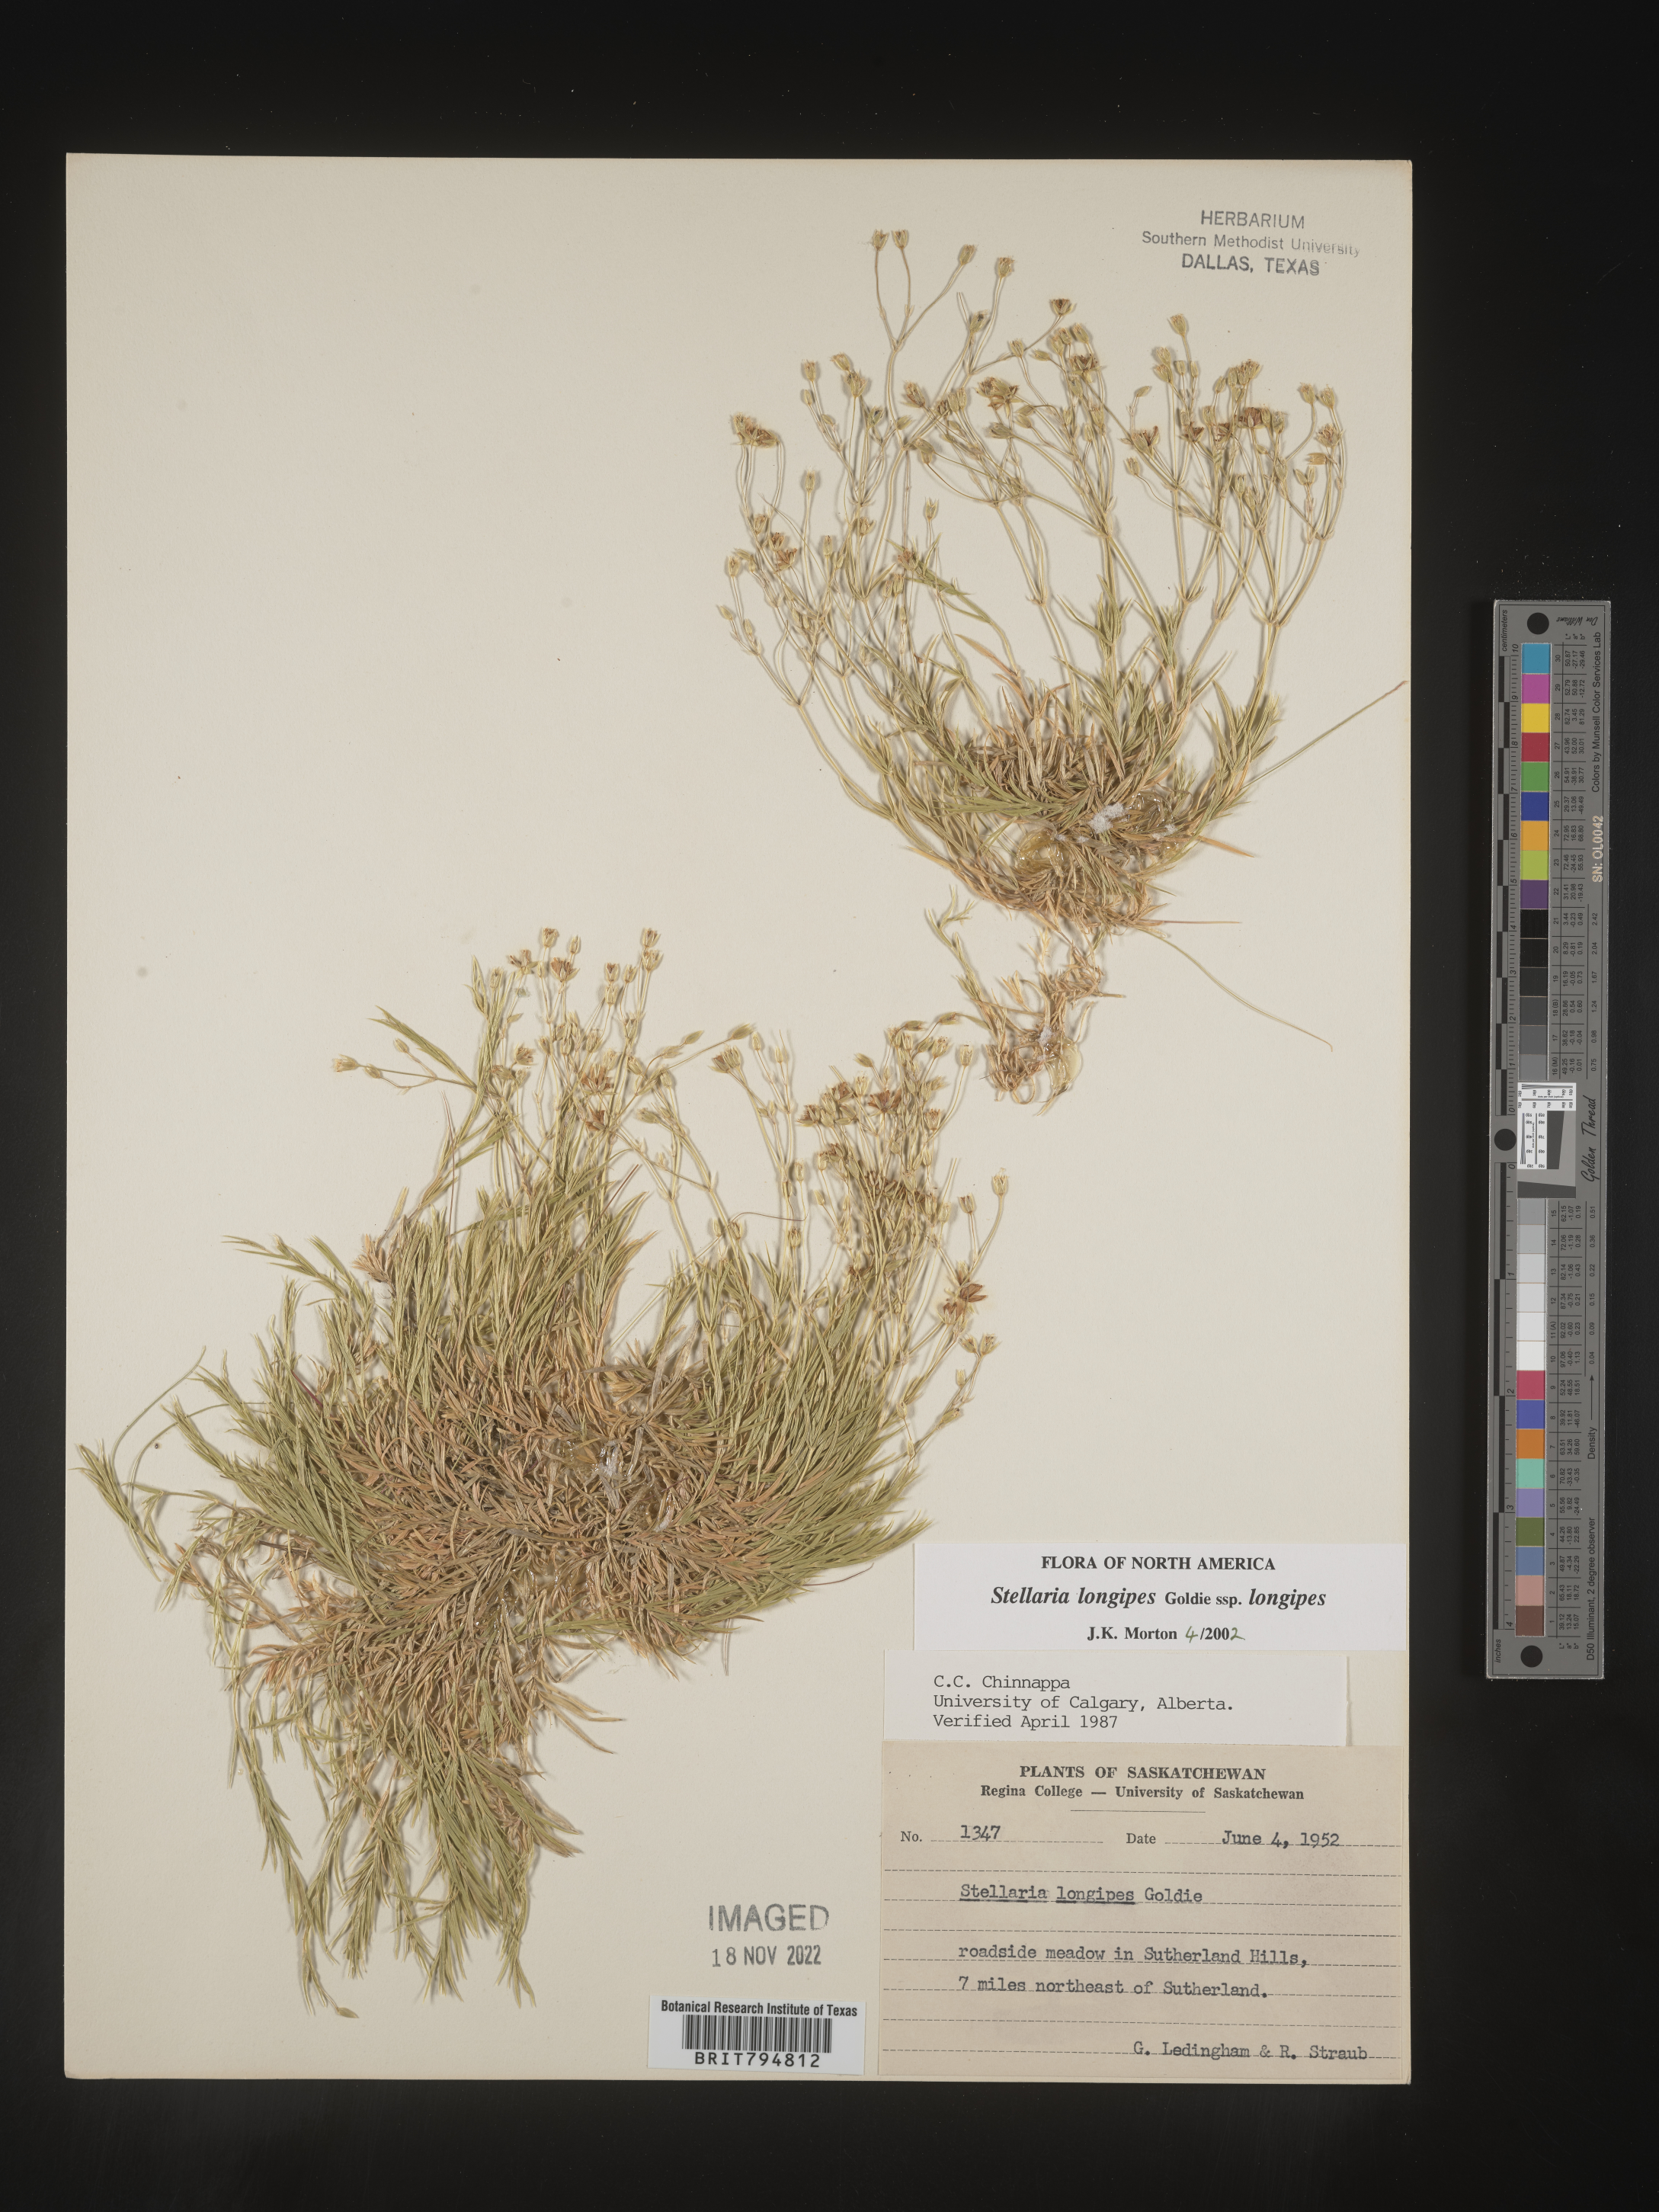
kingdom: Plantae
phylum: Tracheophyta
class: Magnoliopsida
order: Caryophyllales
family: Caryophyllaceae
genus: Stellaria
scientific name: Stellaria longipes
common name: Goldie's starwort
